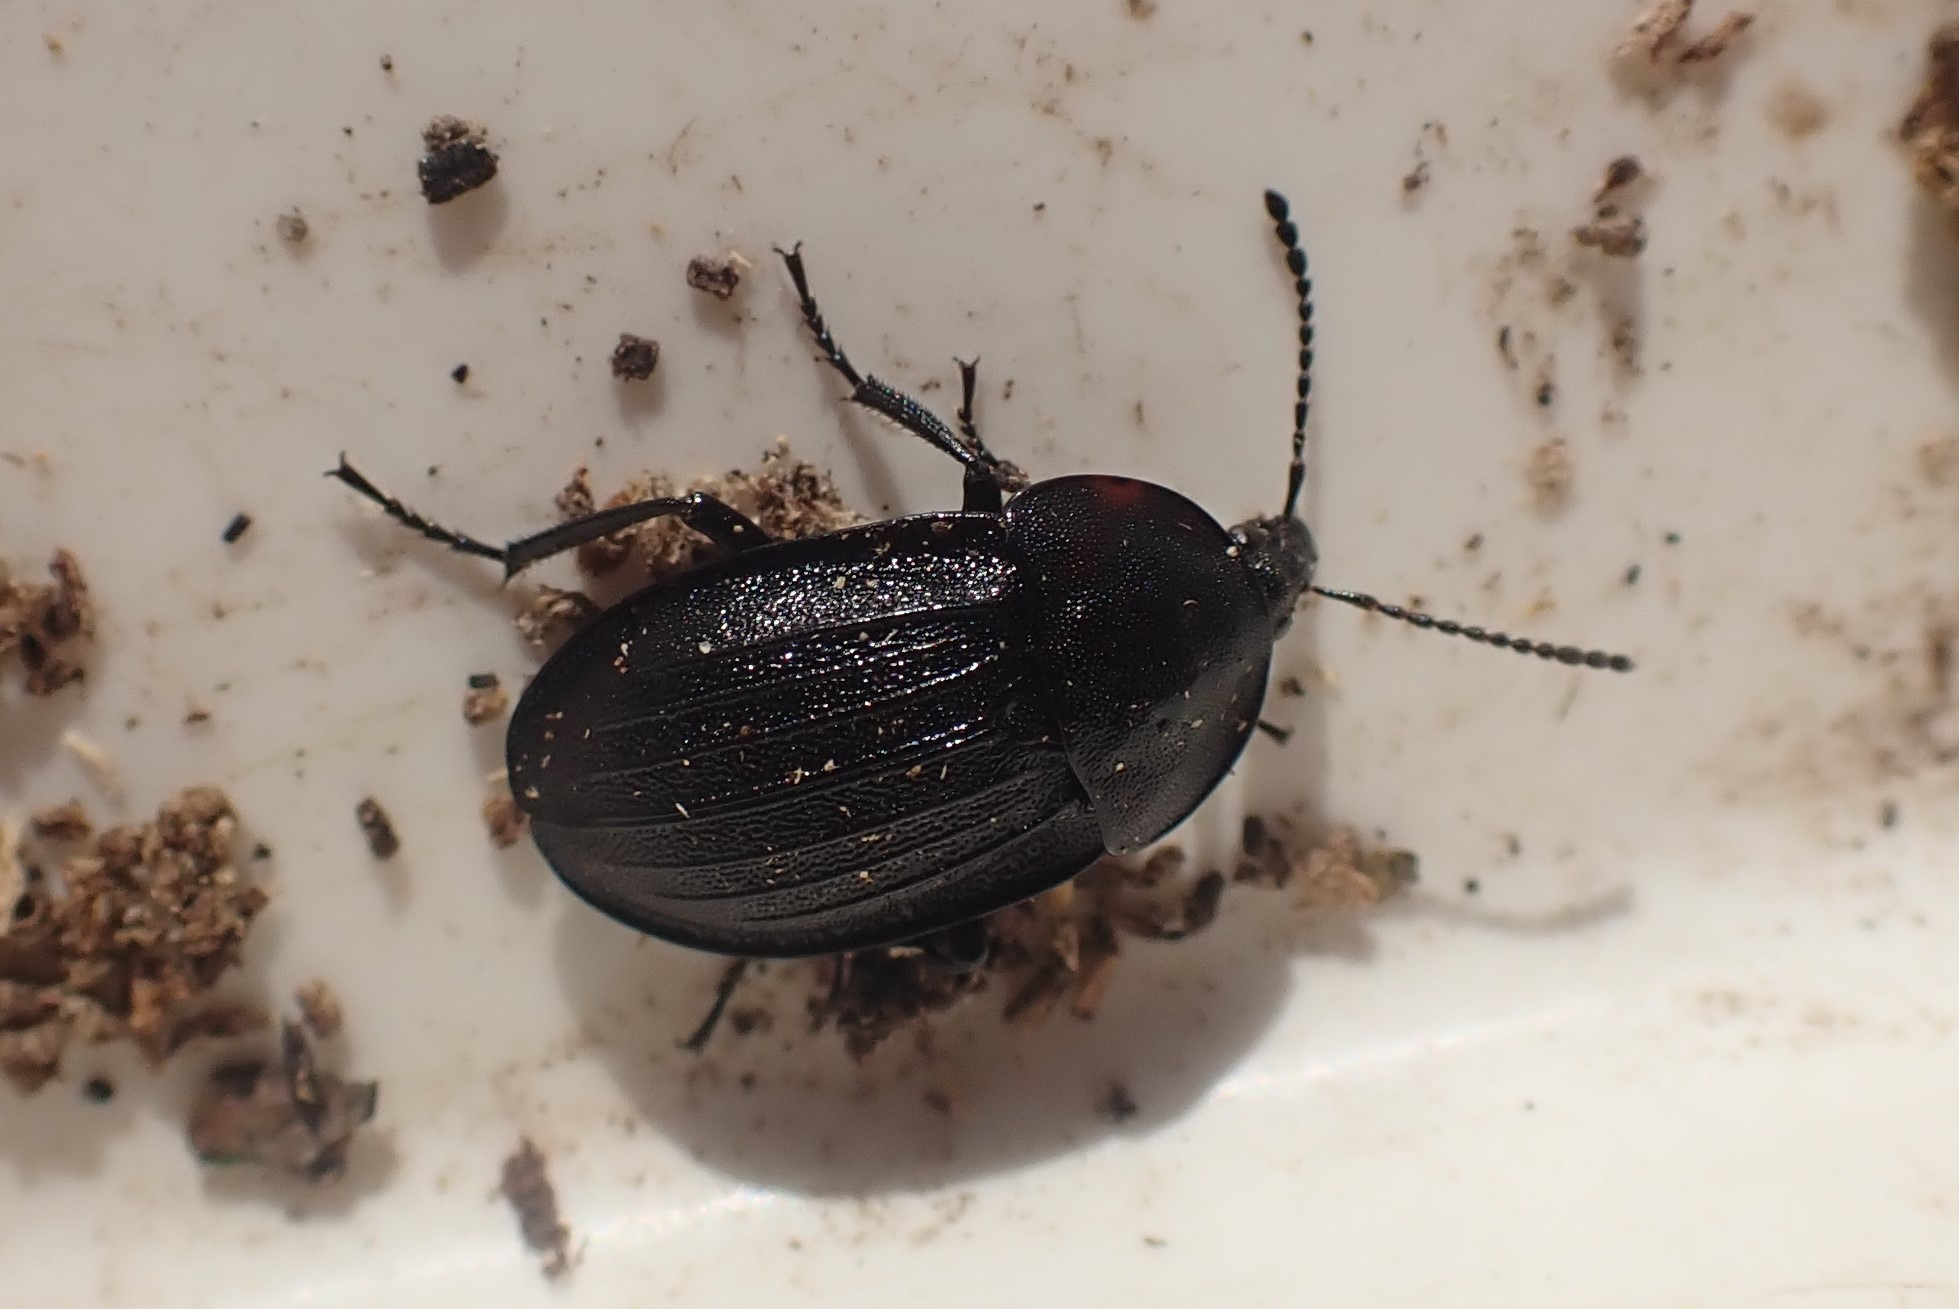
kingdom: Animalia
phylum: Arthropoda
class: Insecta
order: Coleoptera
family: Staphylinidae
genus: Silpha
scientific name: Silpha atrata
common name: Snegleådselbille
